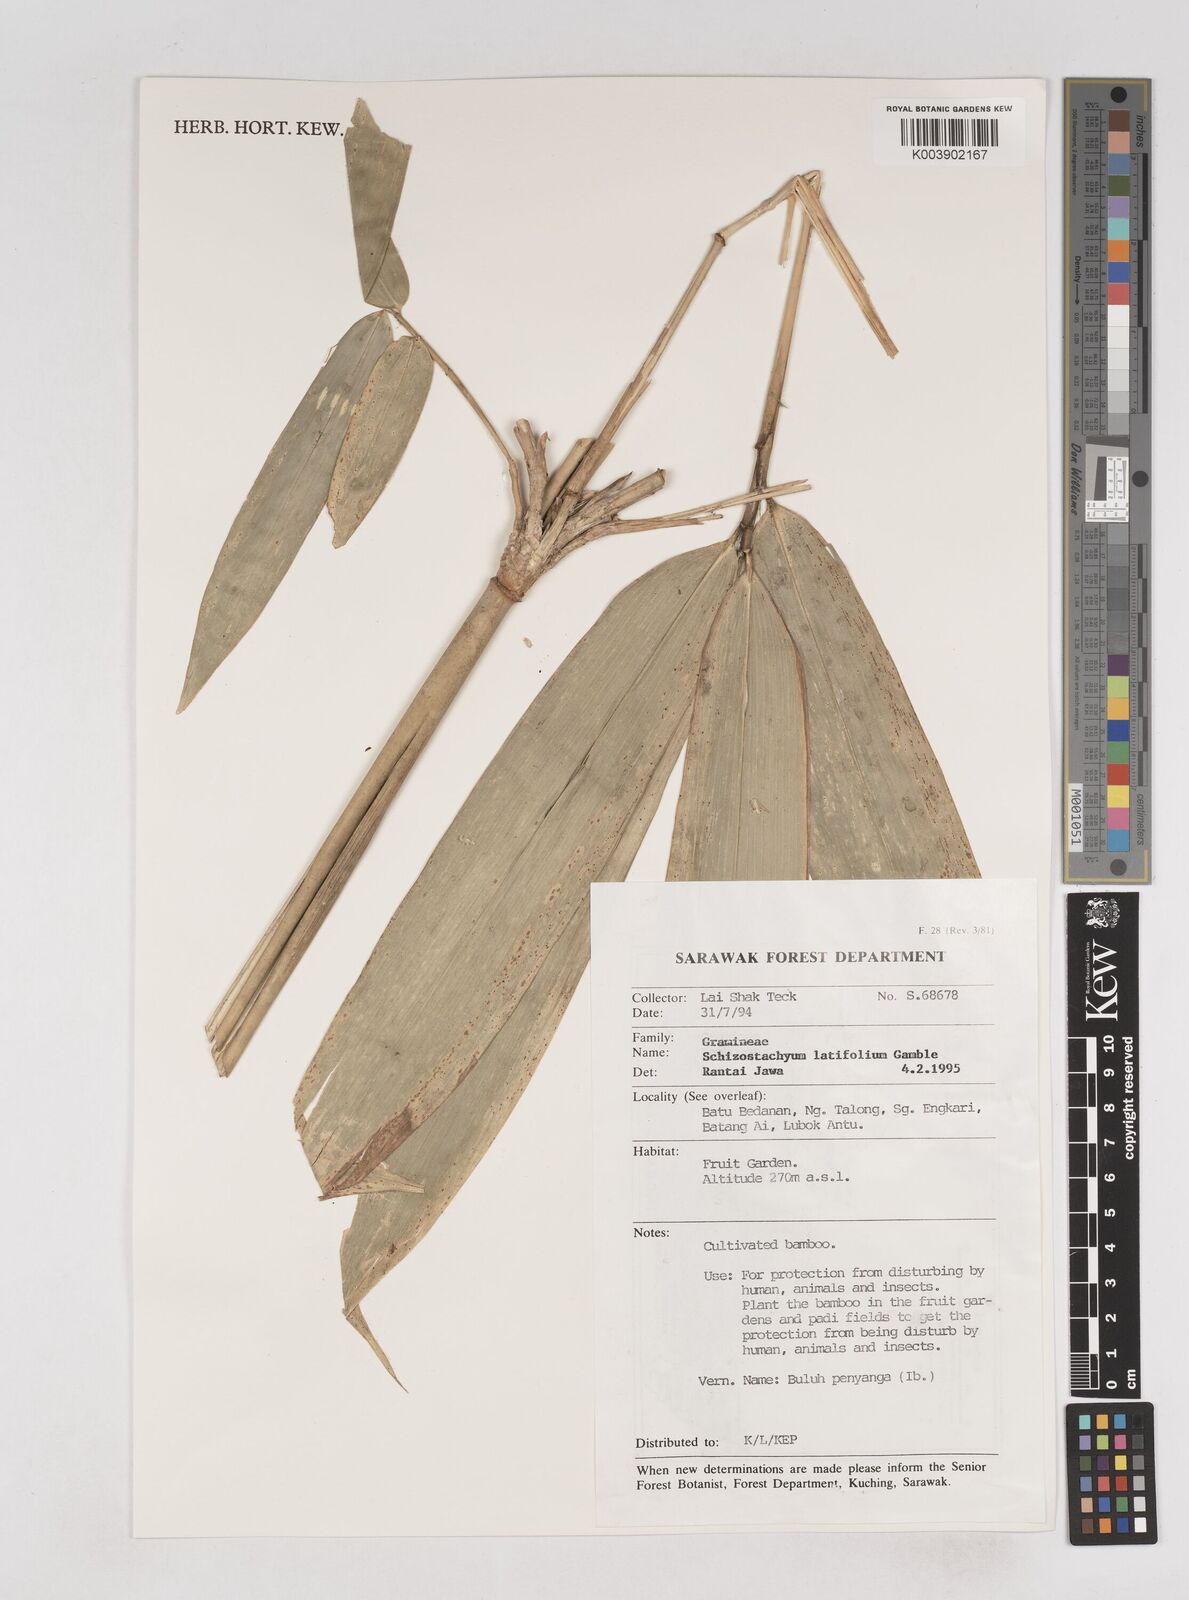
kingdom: Plantae
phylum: Tracheophyta
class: Liliopsida
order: Poales
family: Poaceae
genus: Schizostachyum
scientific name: Schizostachyum
